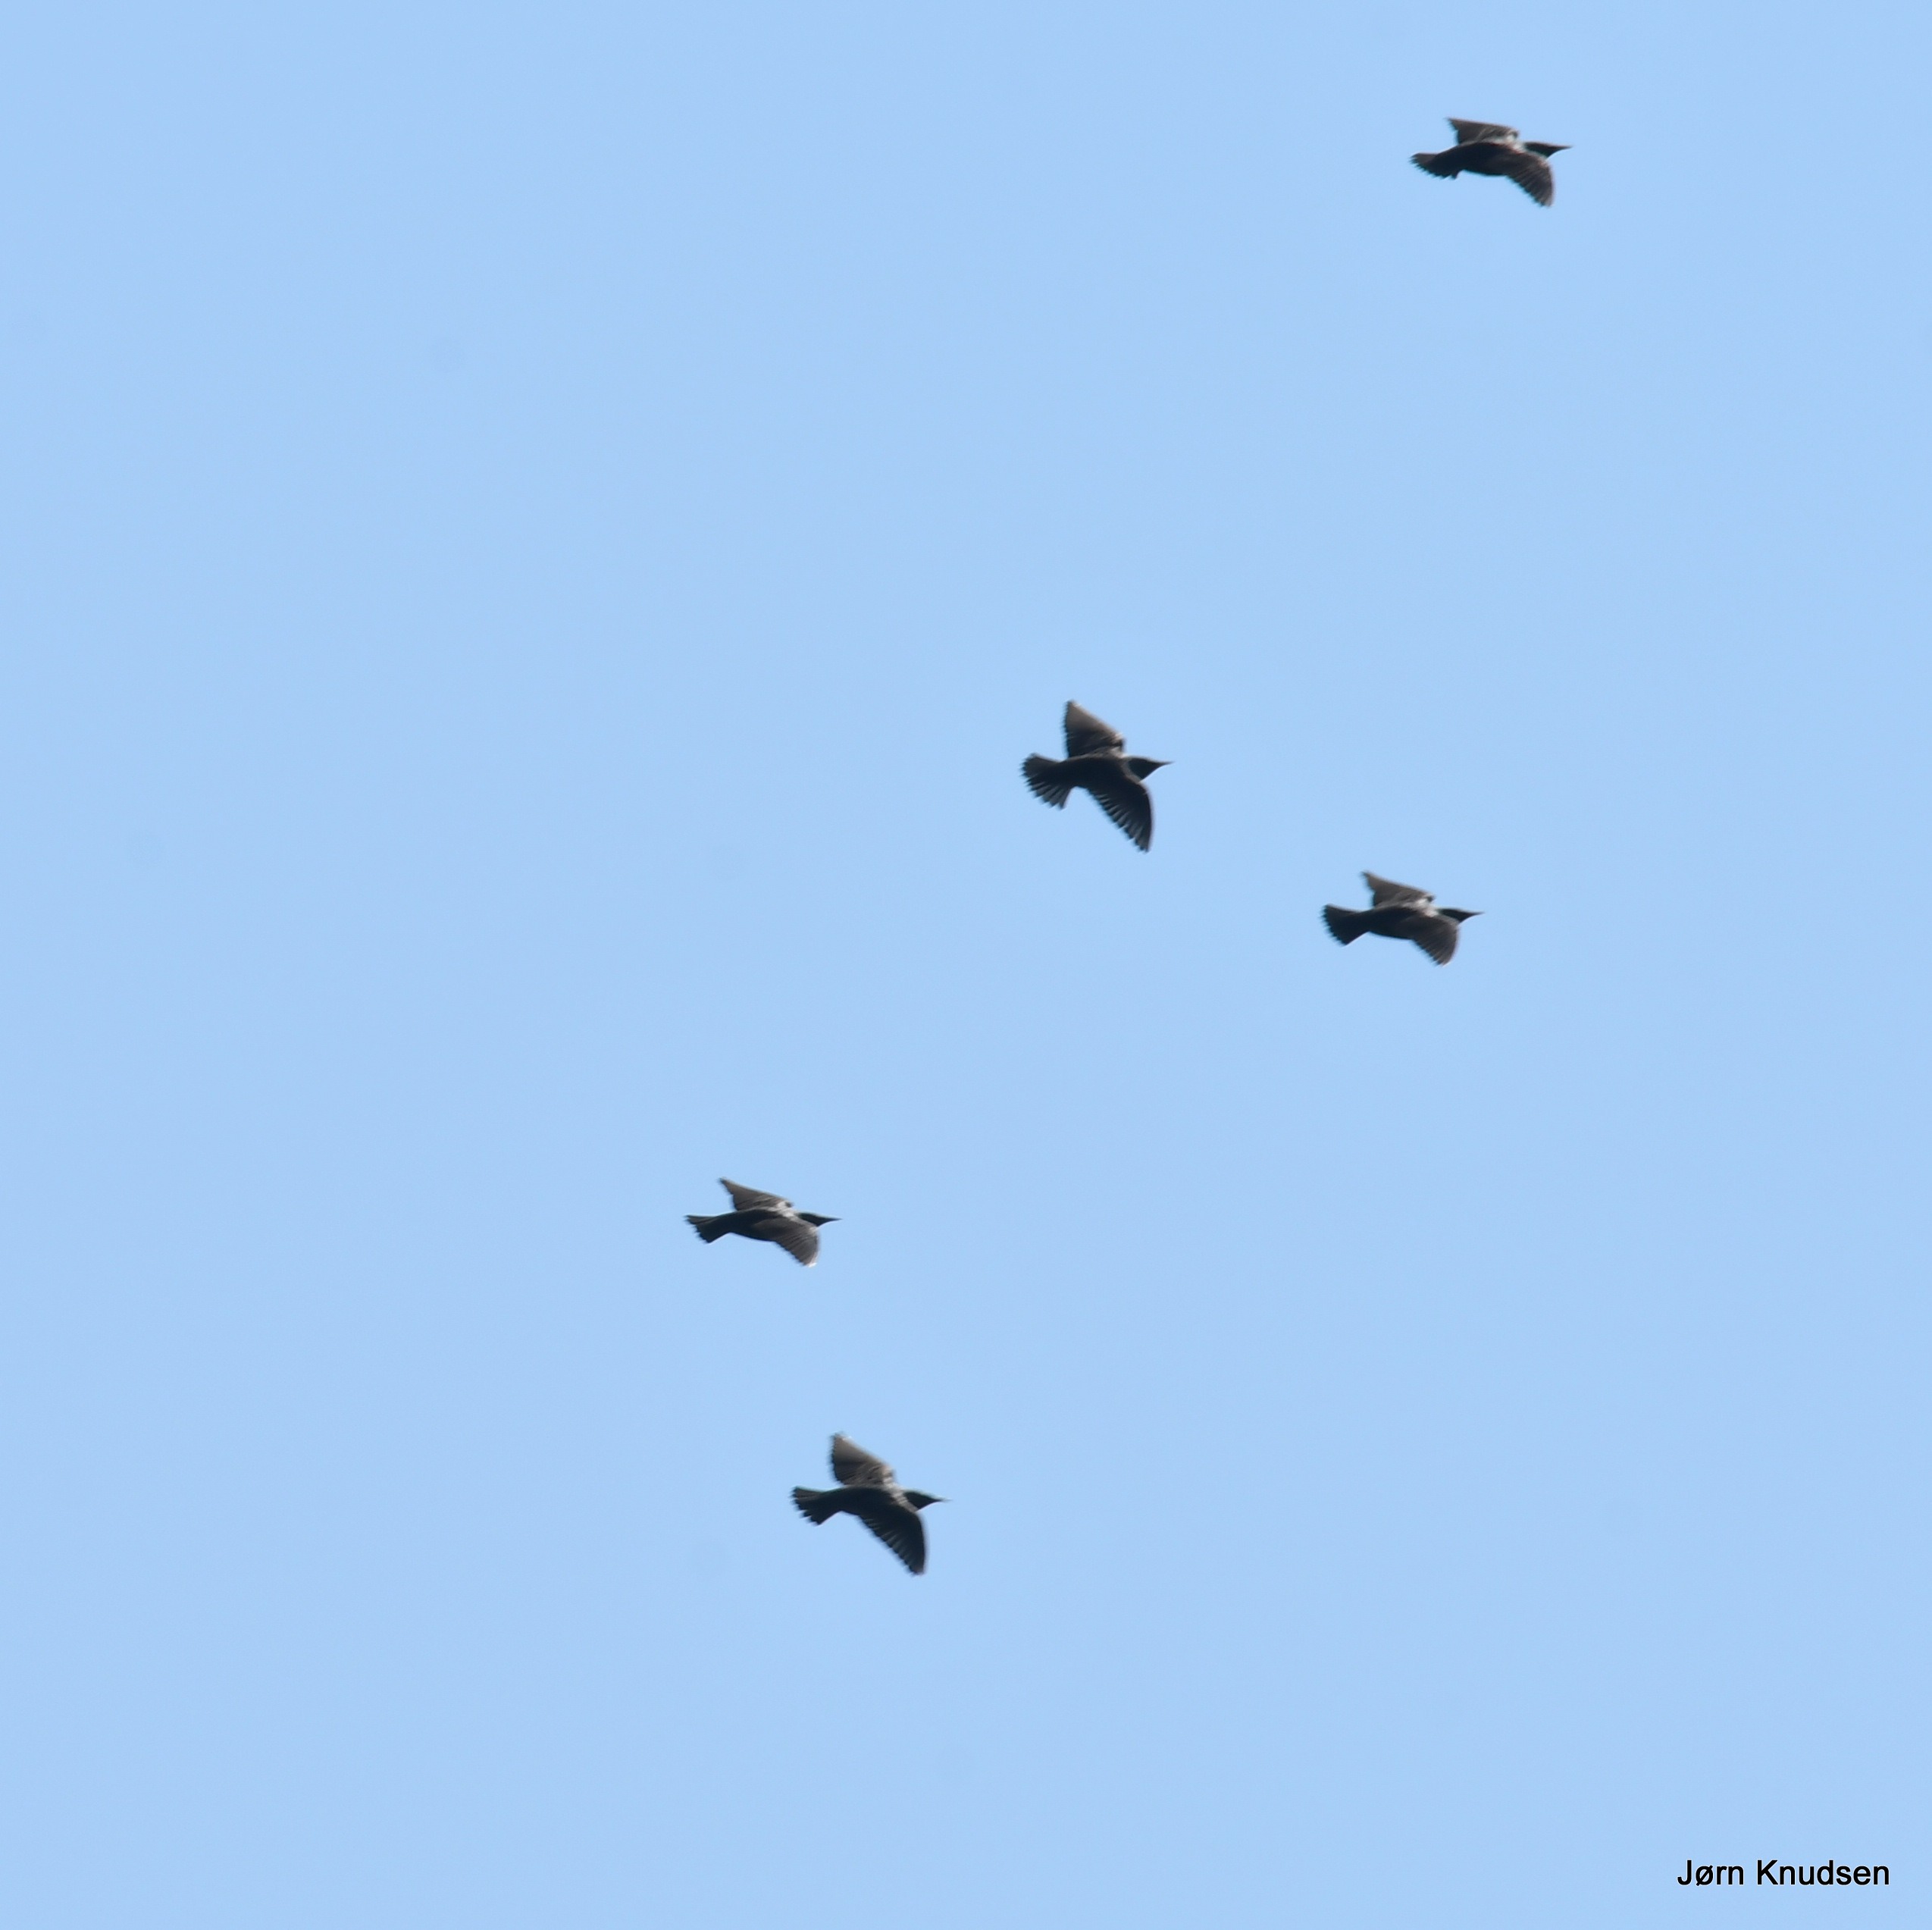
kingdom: Animalia
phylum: Chordata
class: Aves
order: Passeriformes
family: Sturnidae
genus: Sturnus
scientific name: Sturnus vulgaris
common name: Stær
